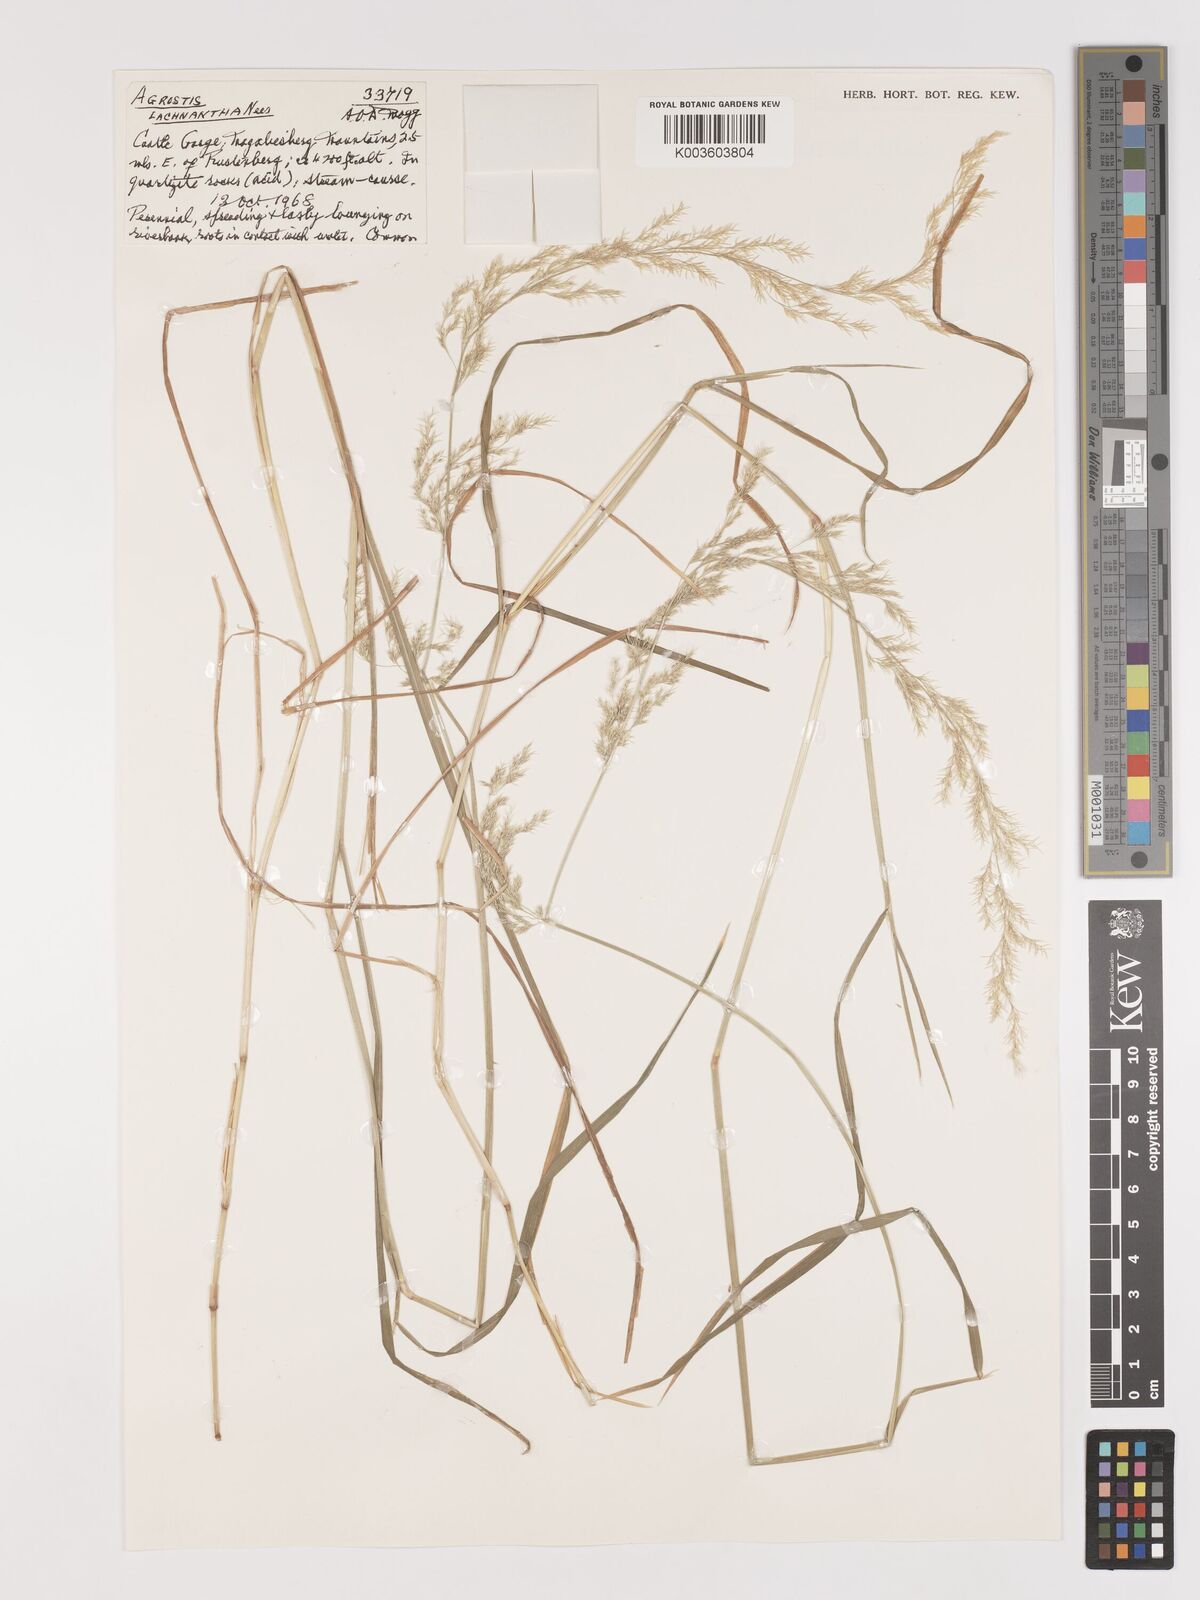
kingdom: Plantae
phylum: Tracheophyta
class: Liliopsida
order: Poales
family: Poaceae
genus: Lachnagrostis
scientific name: Lachnagrostis lachnantha
